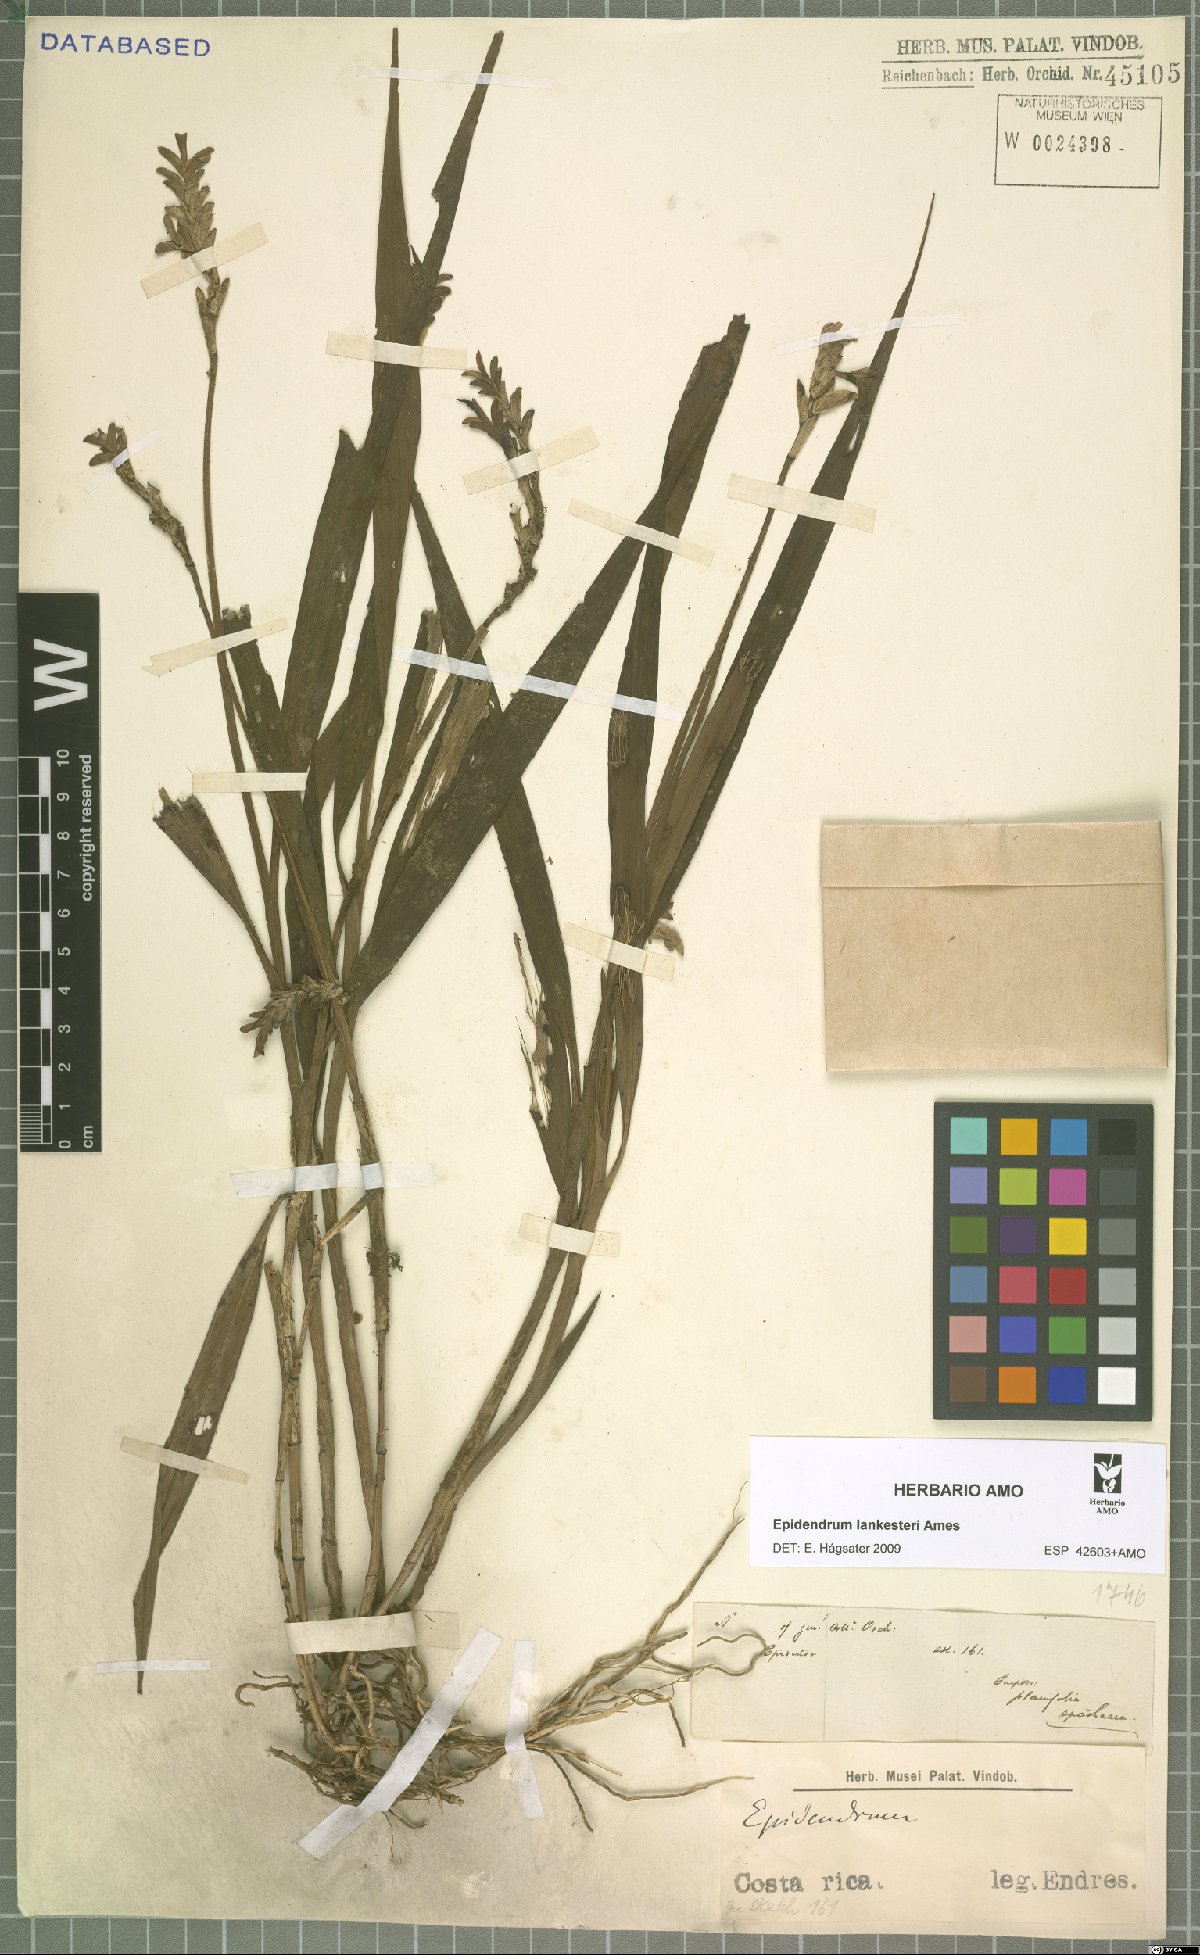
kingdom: Plantae
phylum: Tracheophyta
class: Liliopsida
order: Asparagales
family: Orchidaceae
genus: Epidendrum
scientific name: Epidendrum lankesteri
